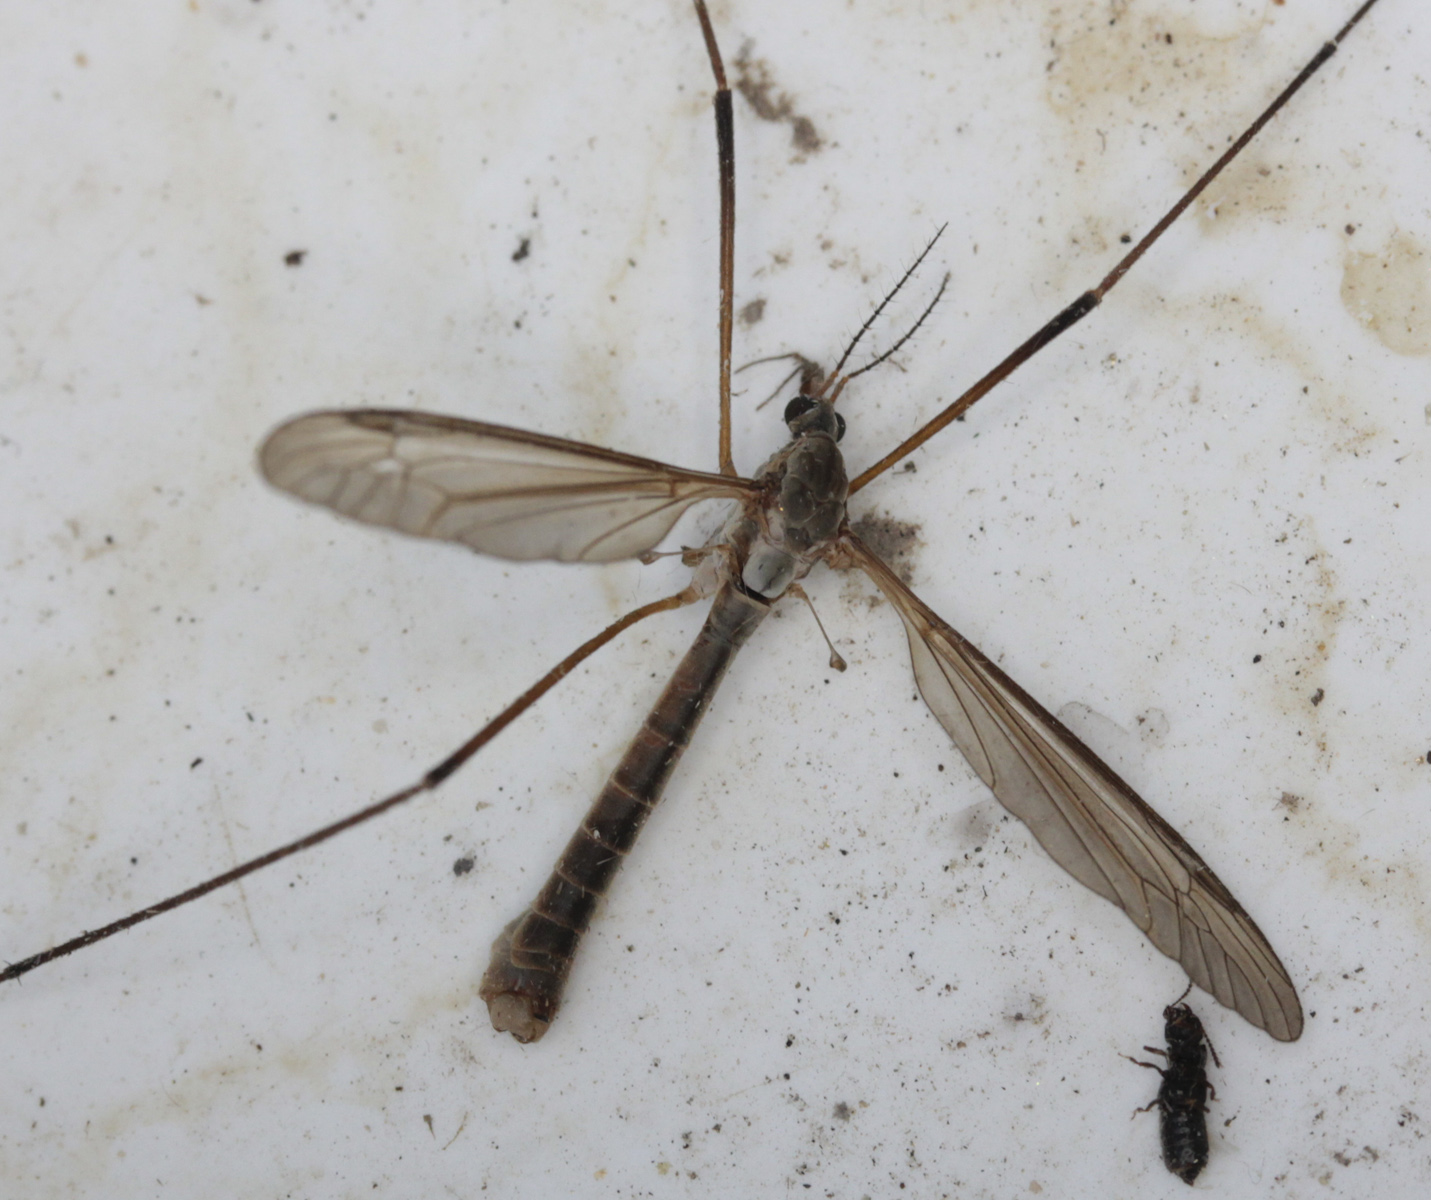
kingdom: Animalia
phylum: Arthropoda
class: Insecta
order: Diptera
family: Tipulidae
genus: Tipula
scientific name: Tipula paludosa
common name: European cranefly
